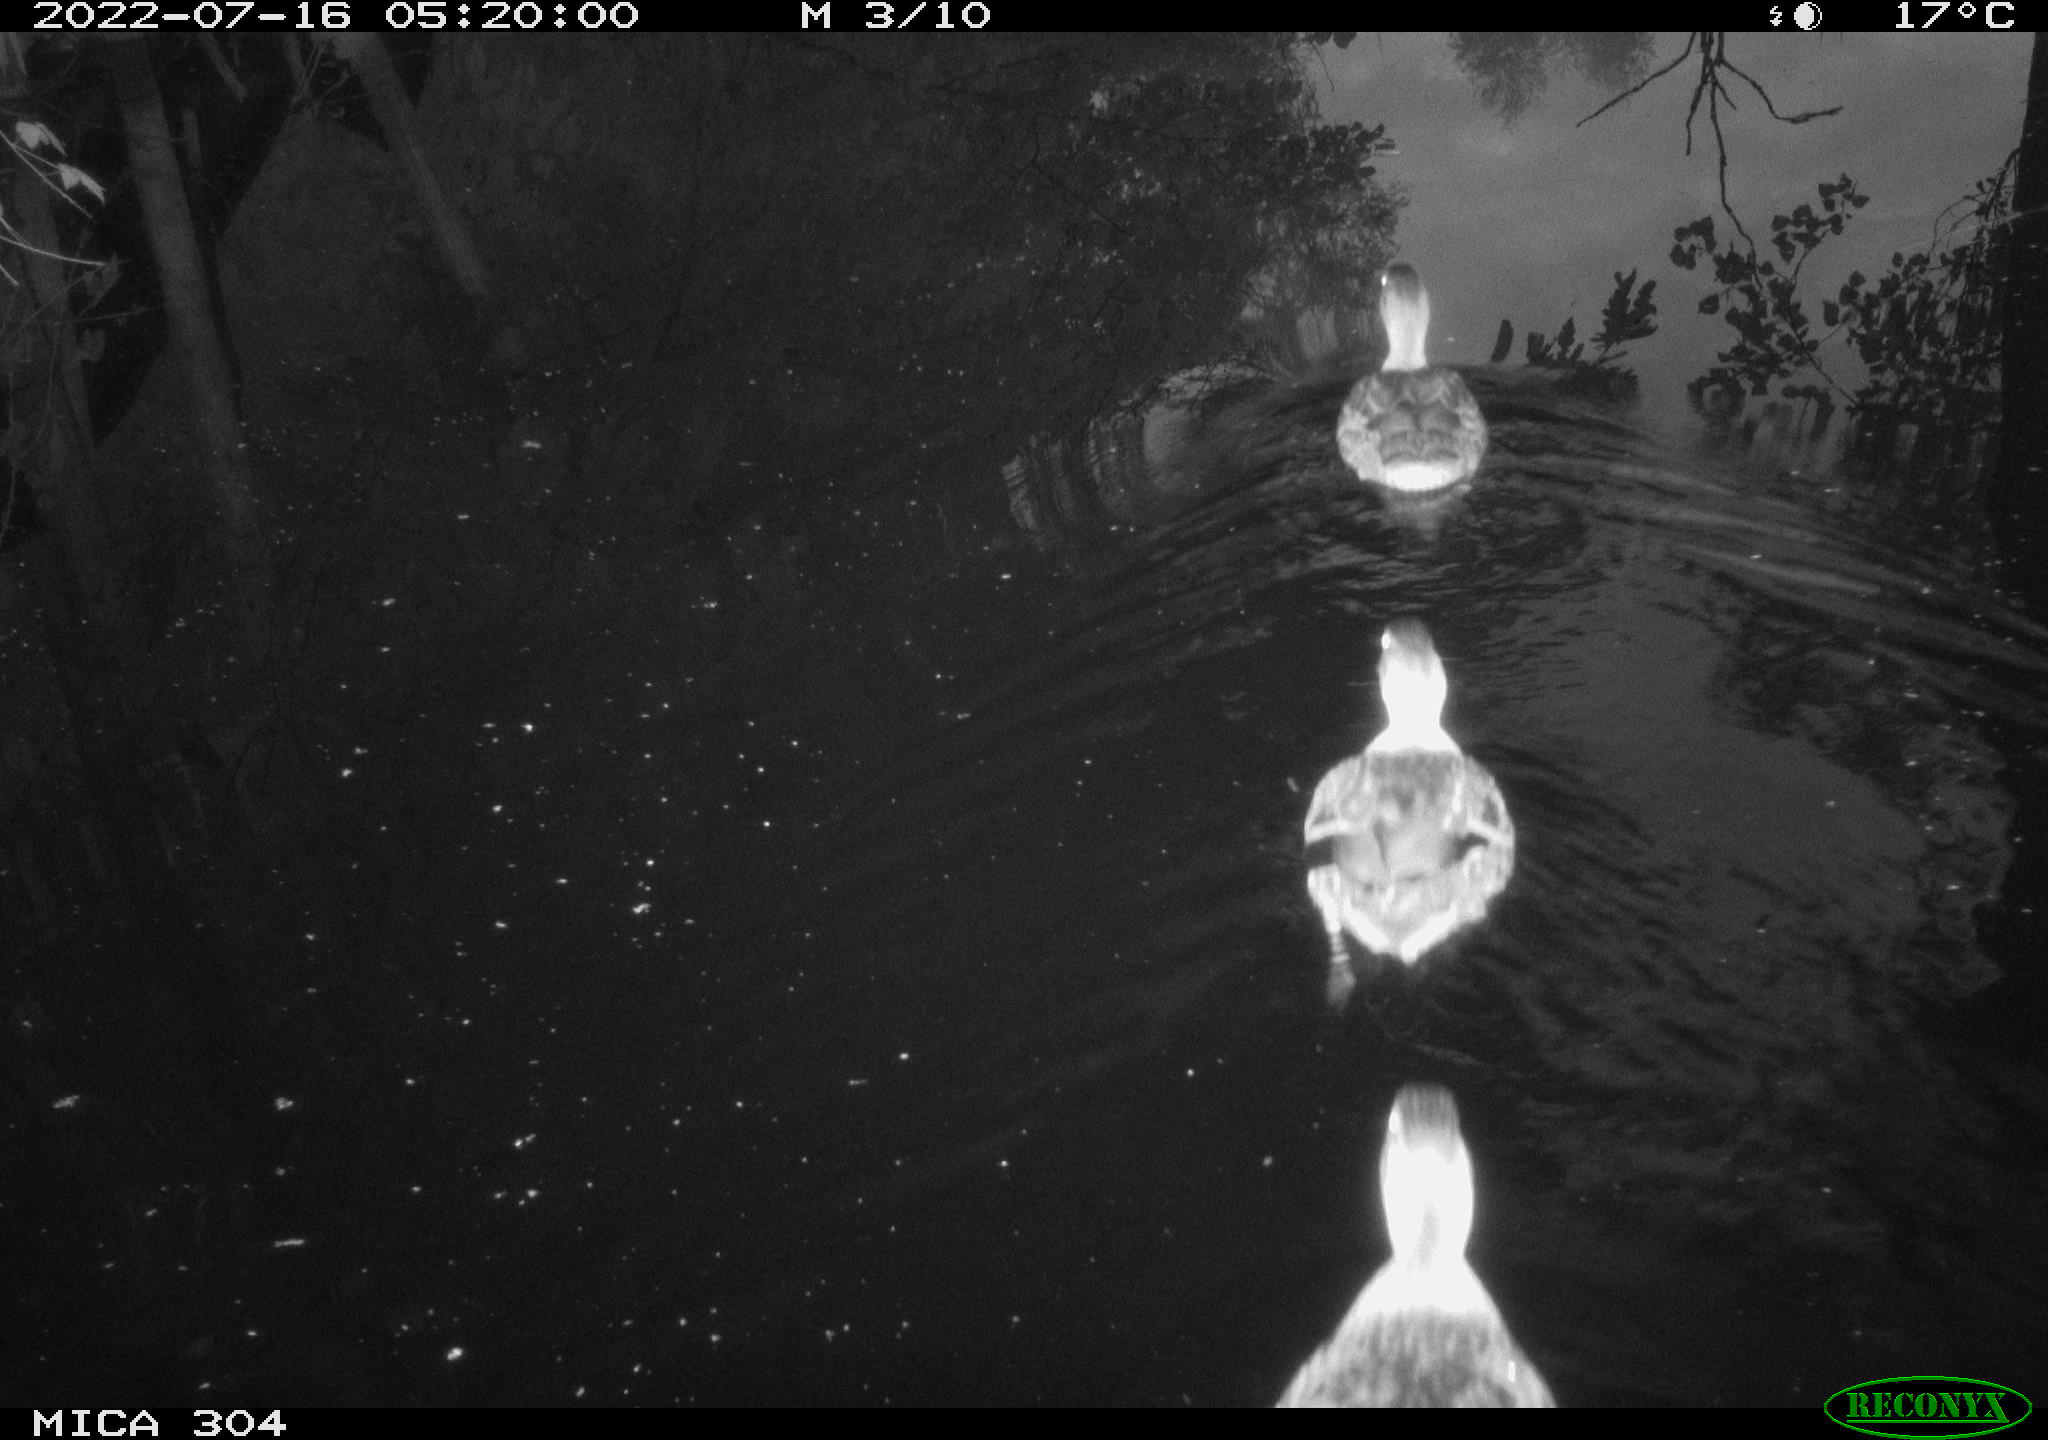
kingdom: Animalia
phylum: Chordata
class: Aves
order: Anseriformes
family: Anatidae
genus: Anas
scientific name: Anas platyrhynchos
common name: Mallard
